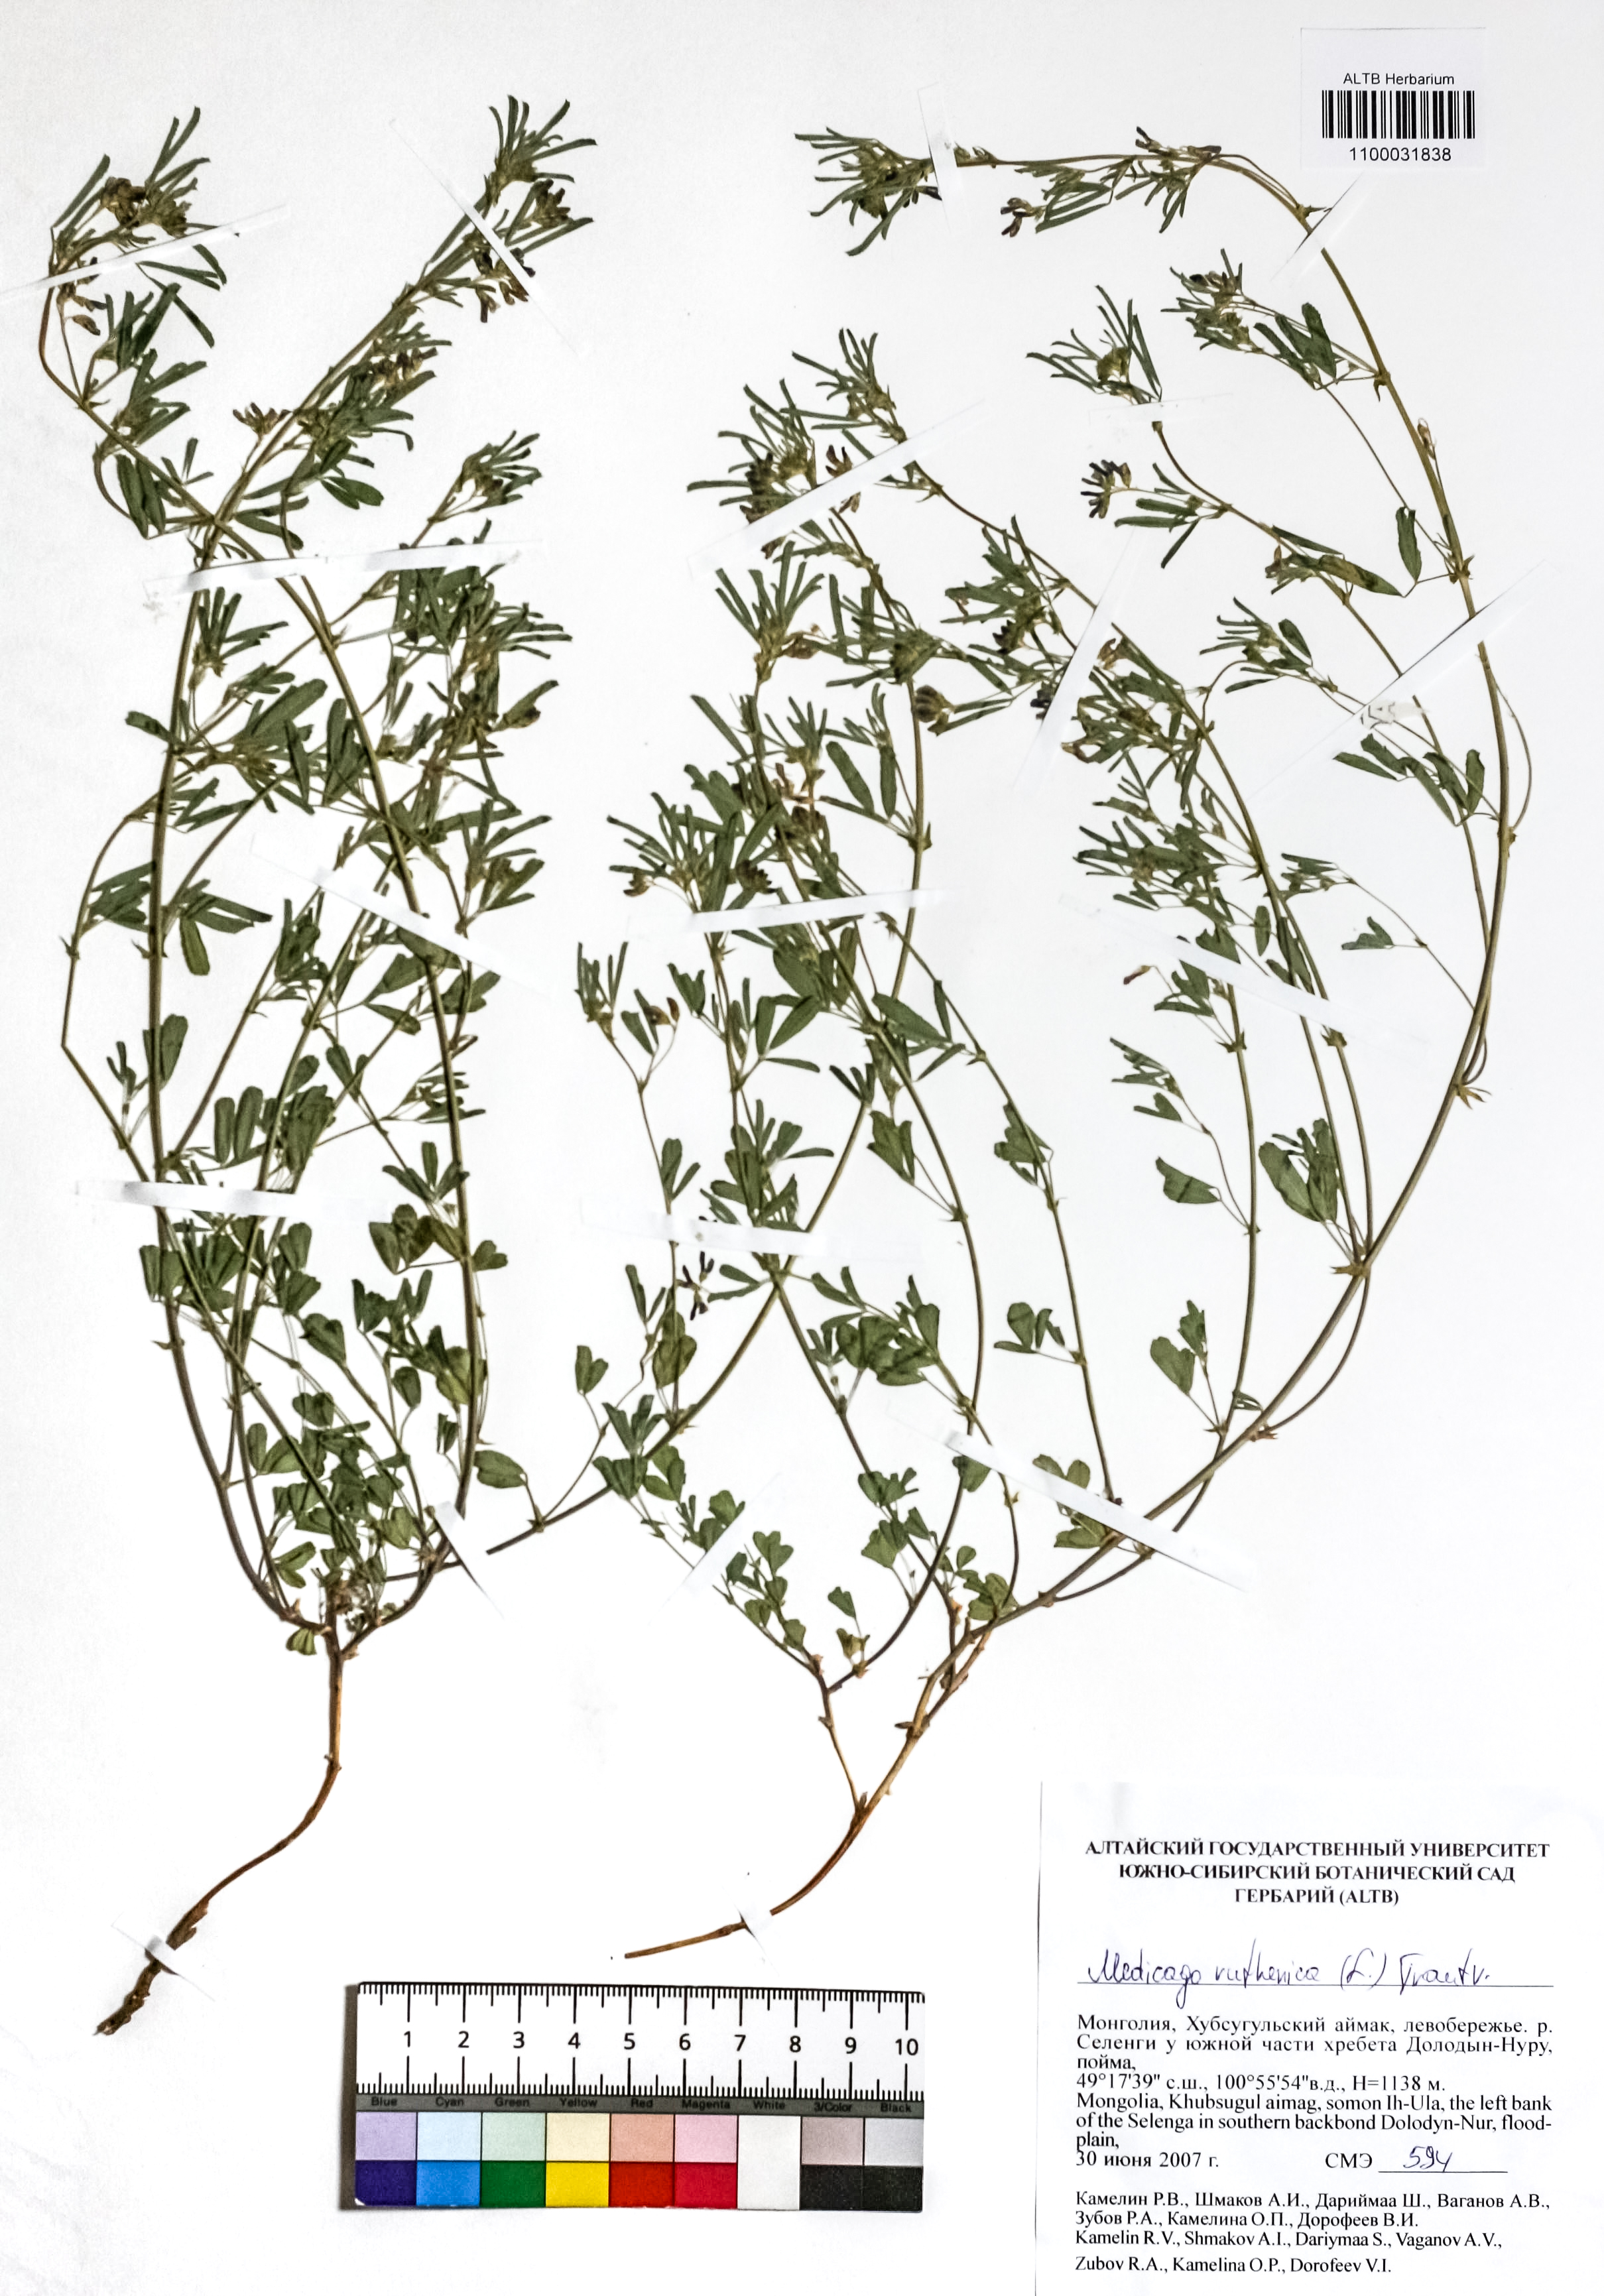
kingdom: Plantae
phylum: Tracheophyta
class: Magnoliopsida
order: Fabales
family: Fabaceae
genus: Medicago
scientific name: Medicago ruthenica
